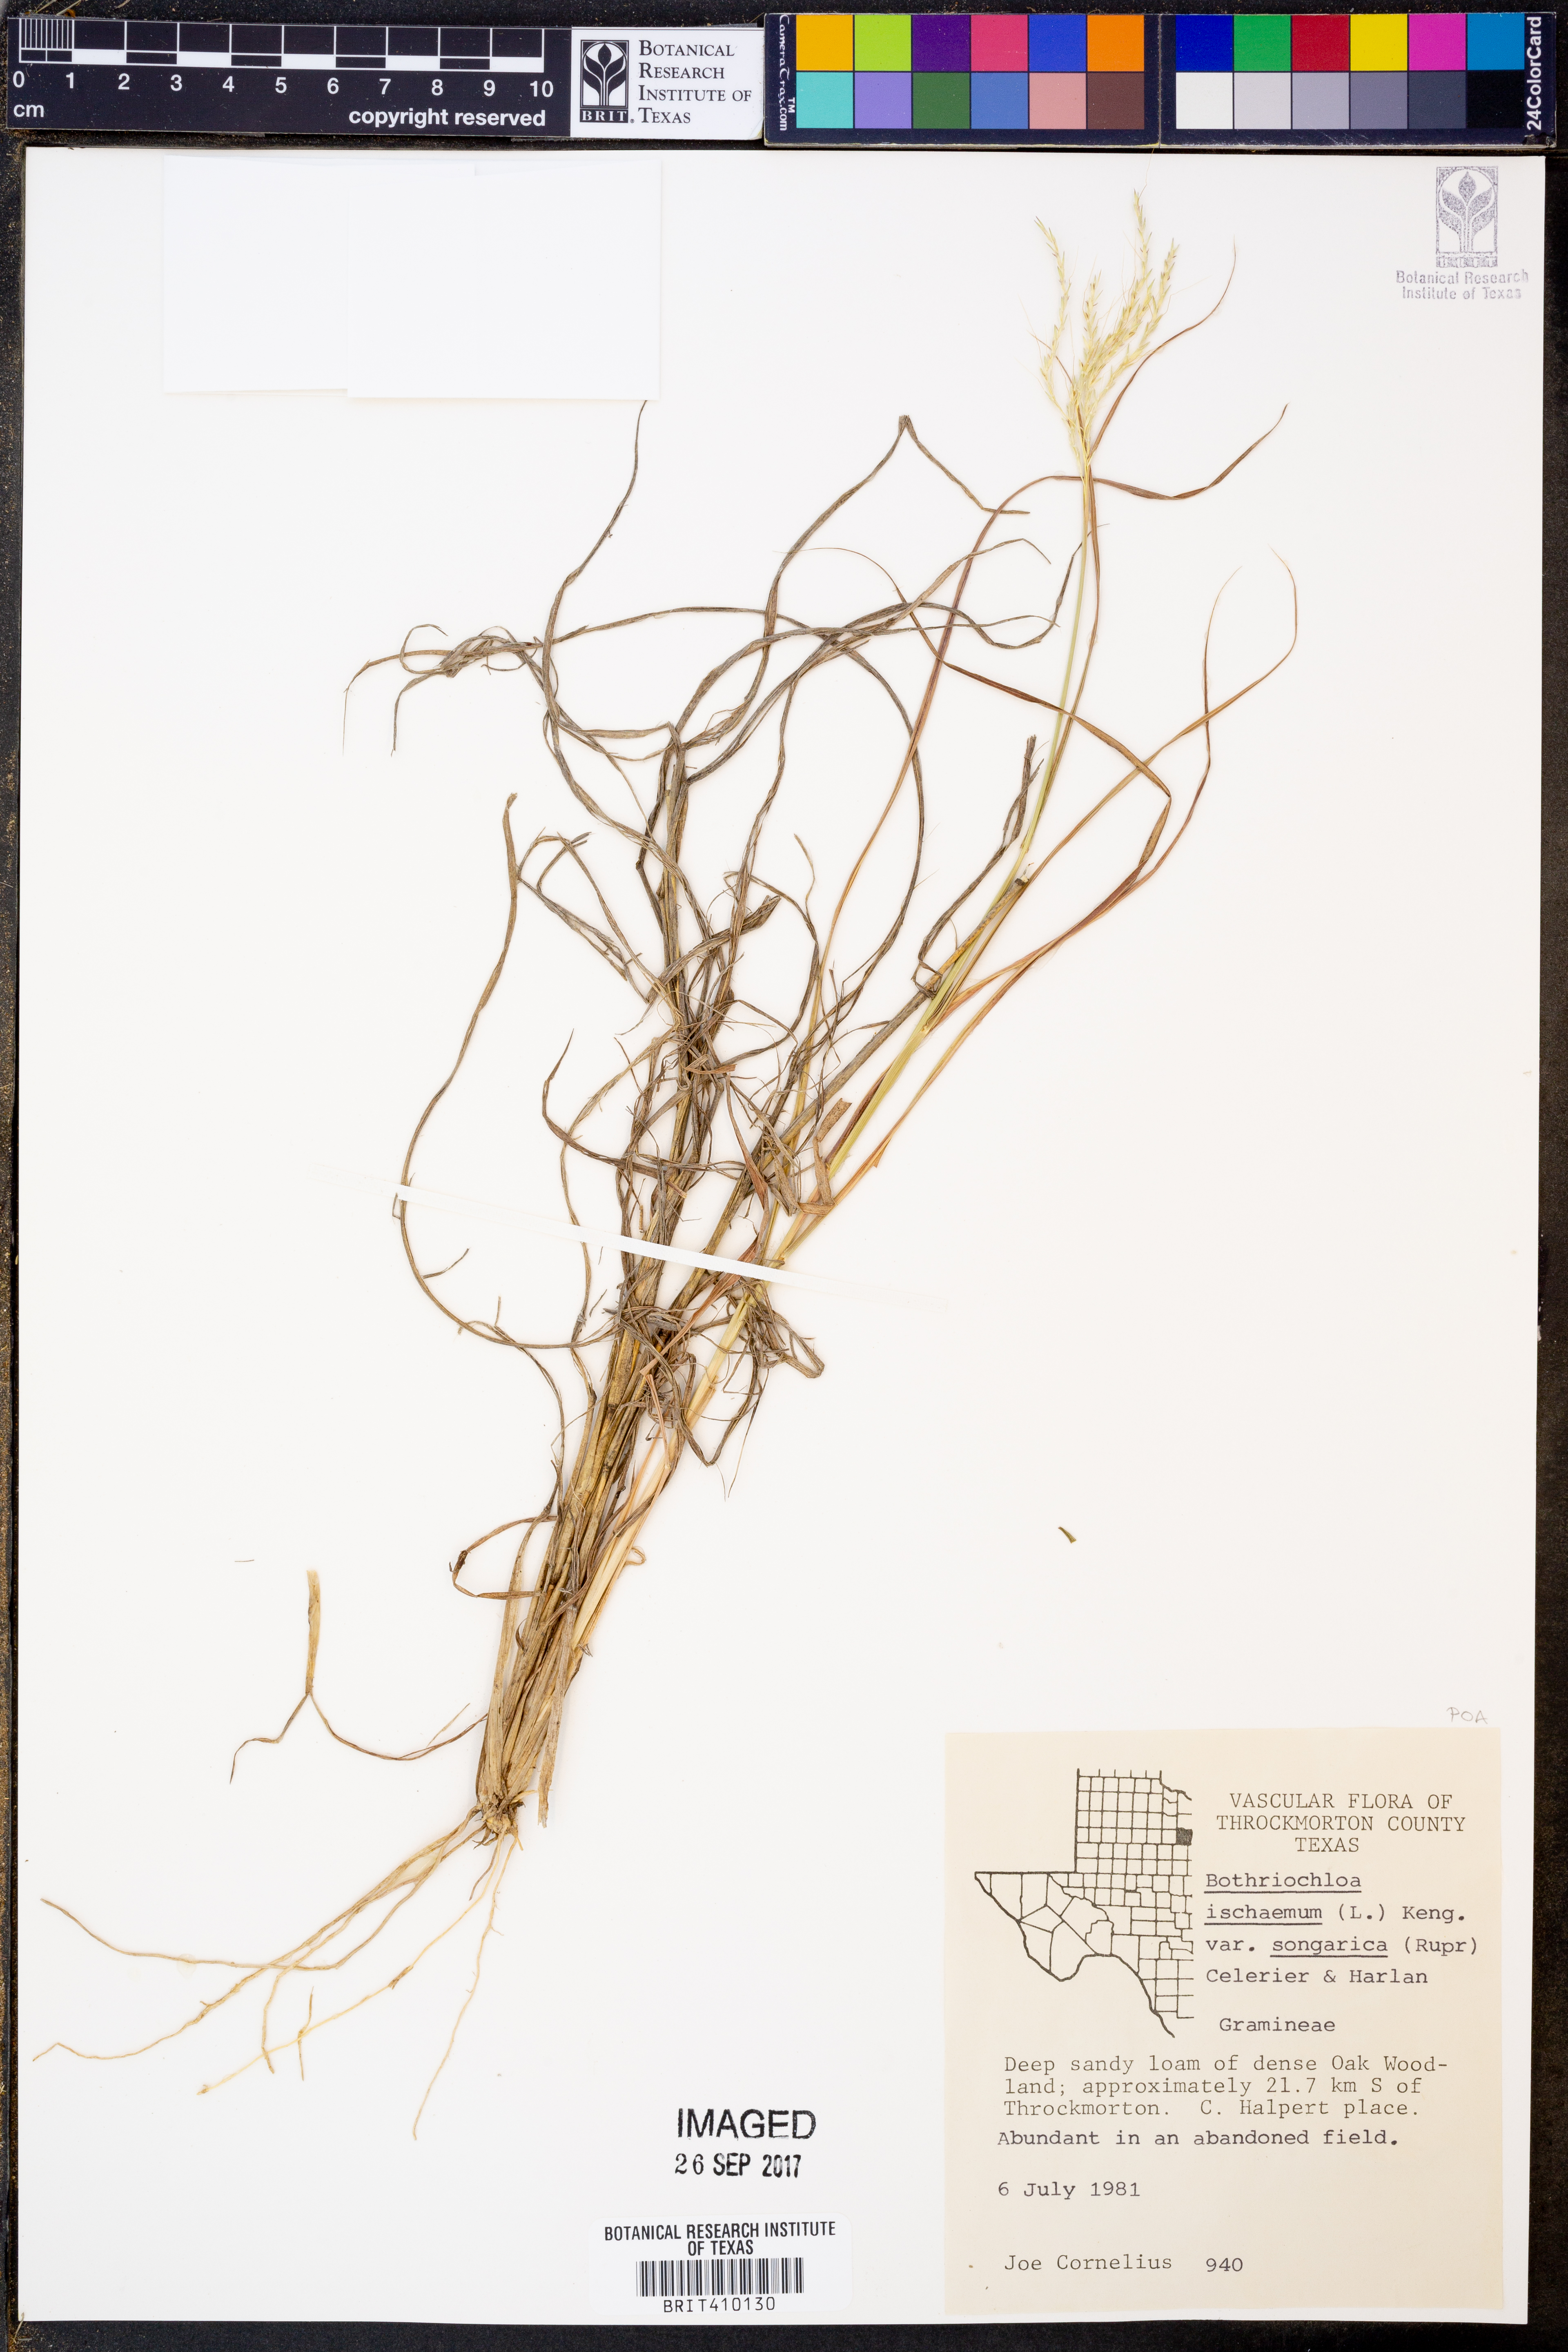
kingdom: Plantae
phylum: Tracheophyta
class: Liliopsida
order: Poales
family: Poaceae
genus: Bothriochloa
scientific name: Bothriochloa ischaemum
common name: Yellow bluestem
